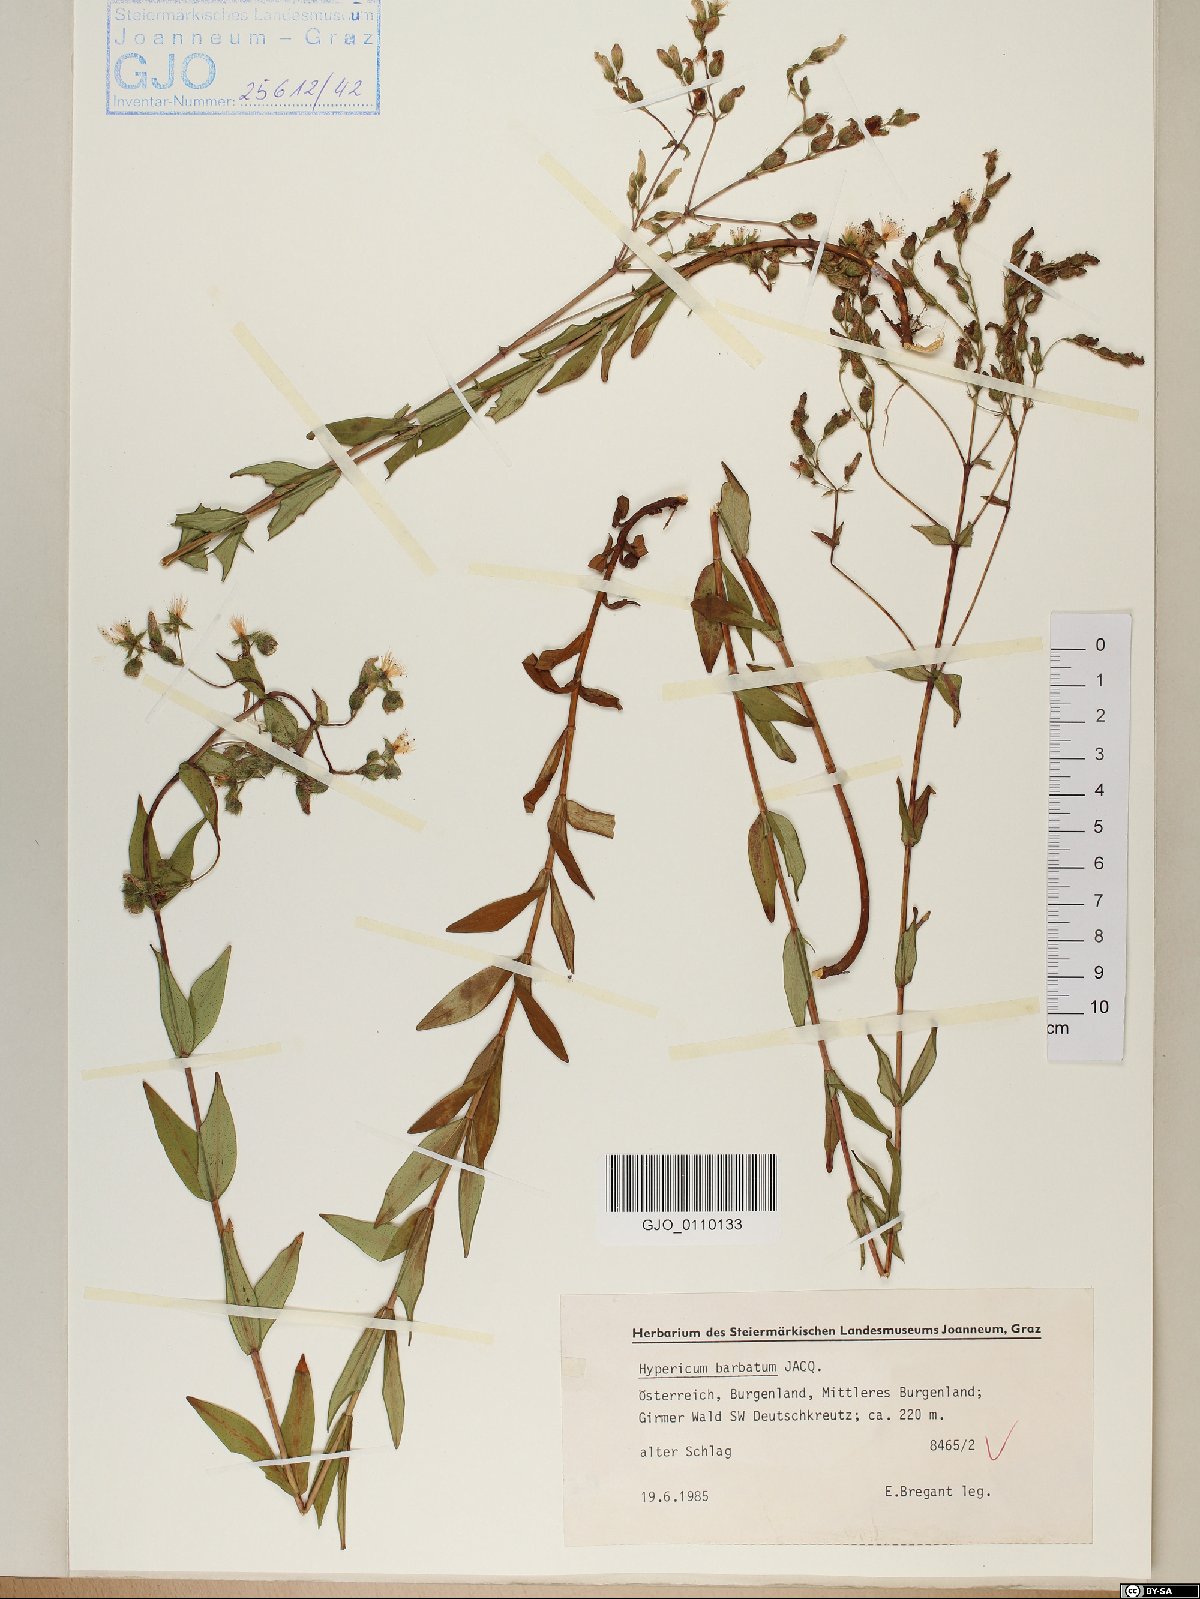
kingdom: Plantae
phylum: Tracheophyta
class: Magnoliopsida
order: Malpighiales
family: Hypericaceae
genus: Hypericum
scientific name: Hypericum barbatum
